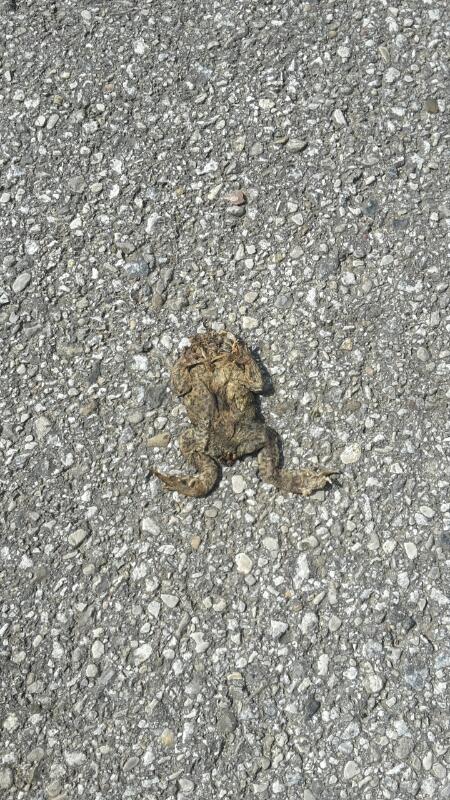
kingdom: Animalia
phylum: Chordata
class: Amphibia
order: Anura
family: Bufonidae
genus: Bufo
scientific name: Bufo bufo
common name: Common toad
